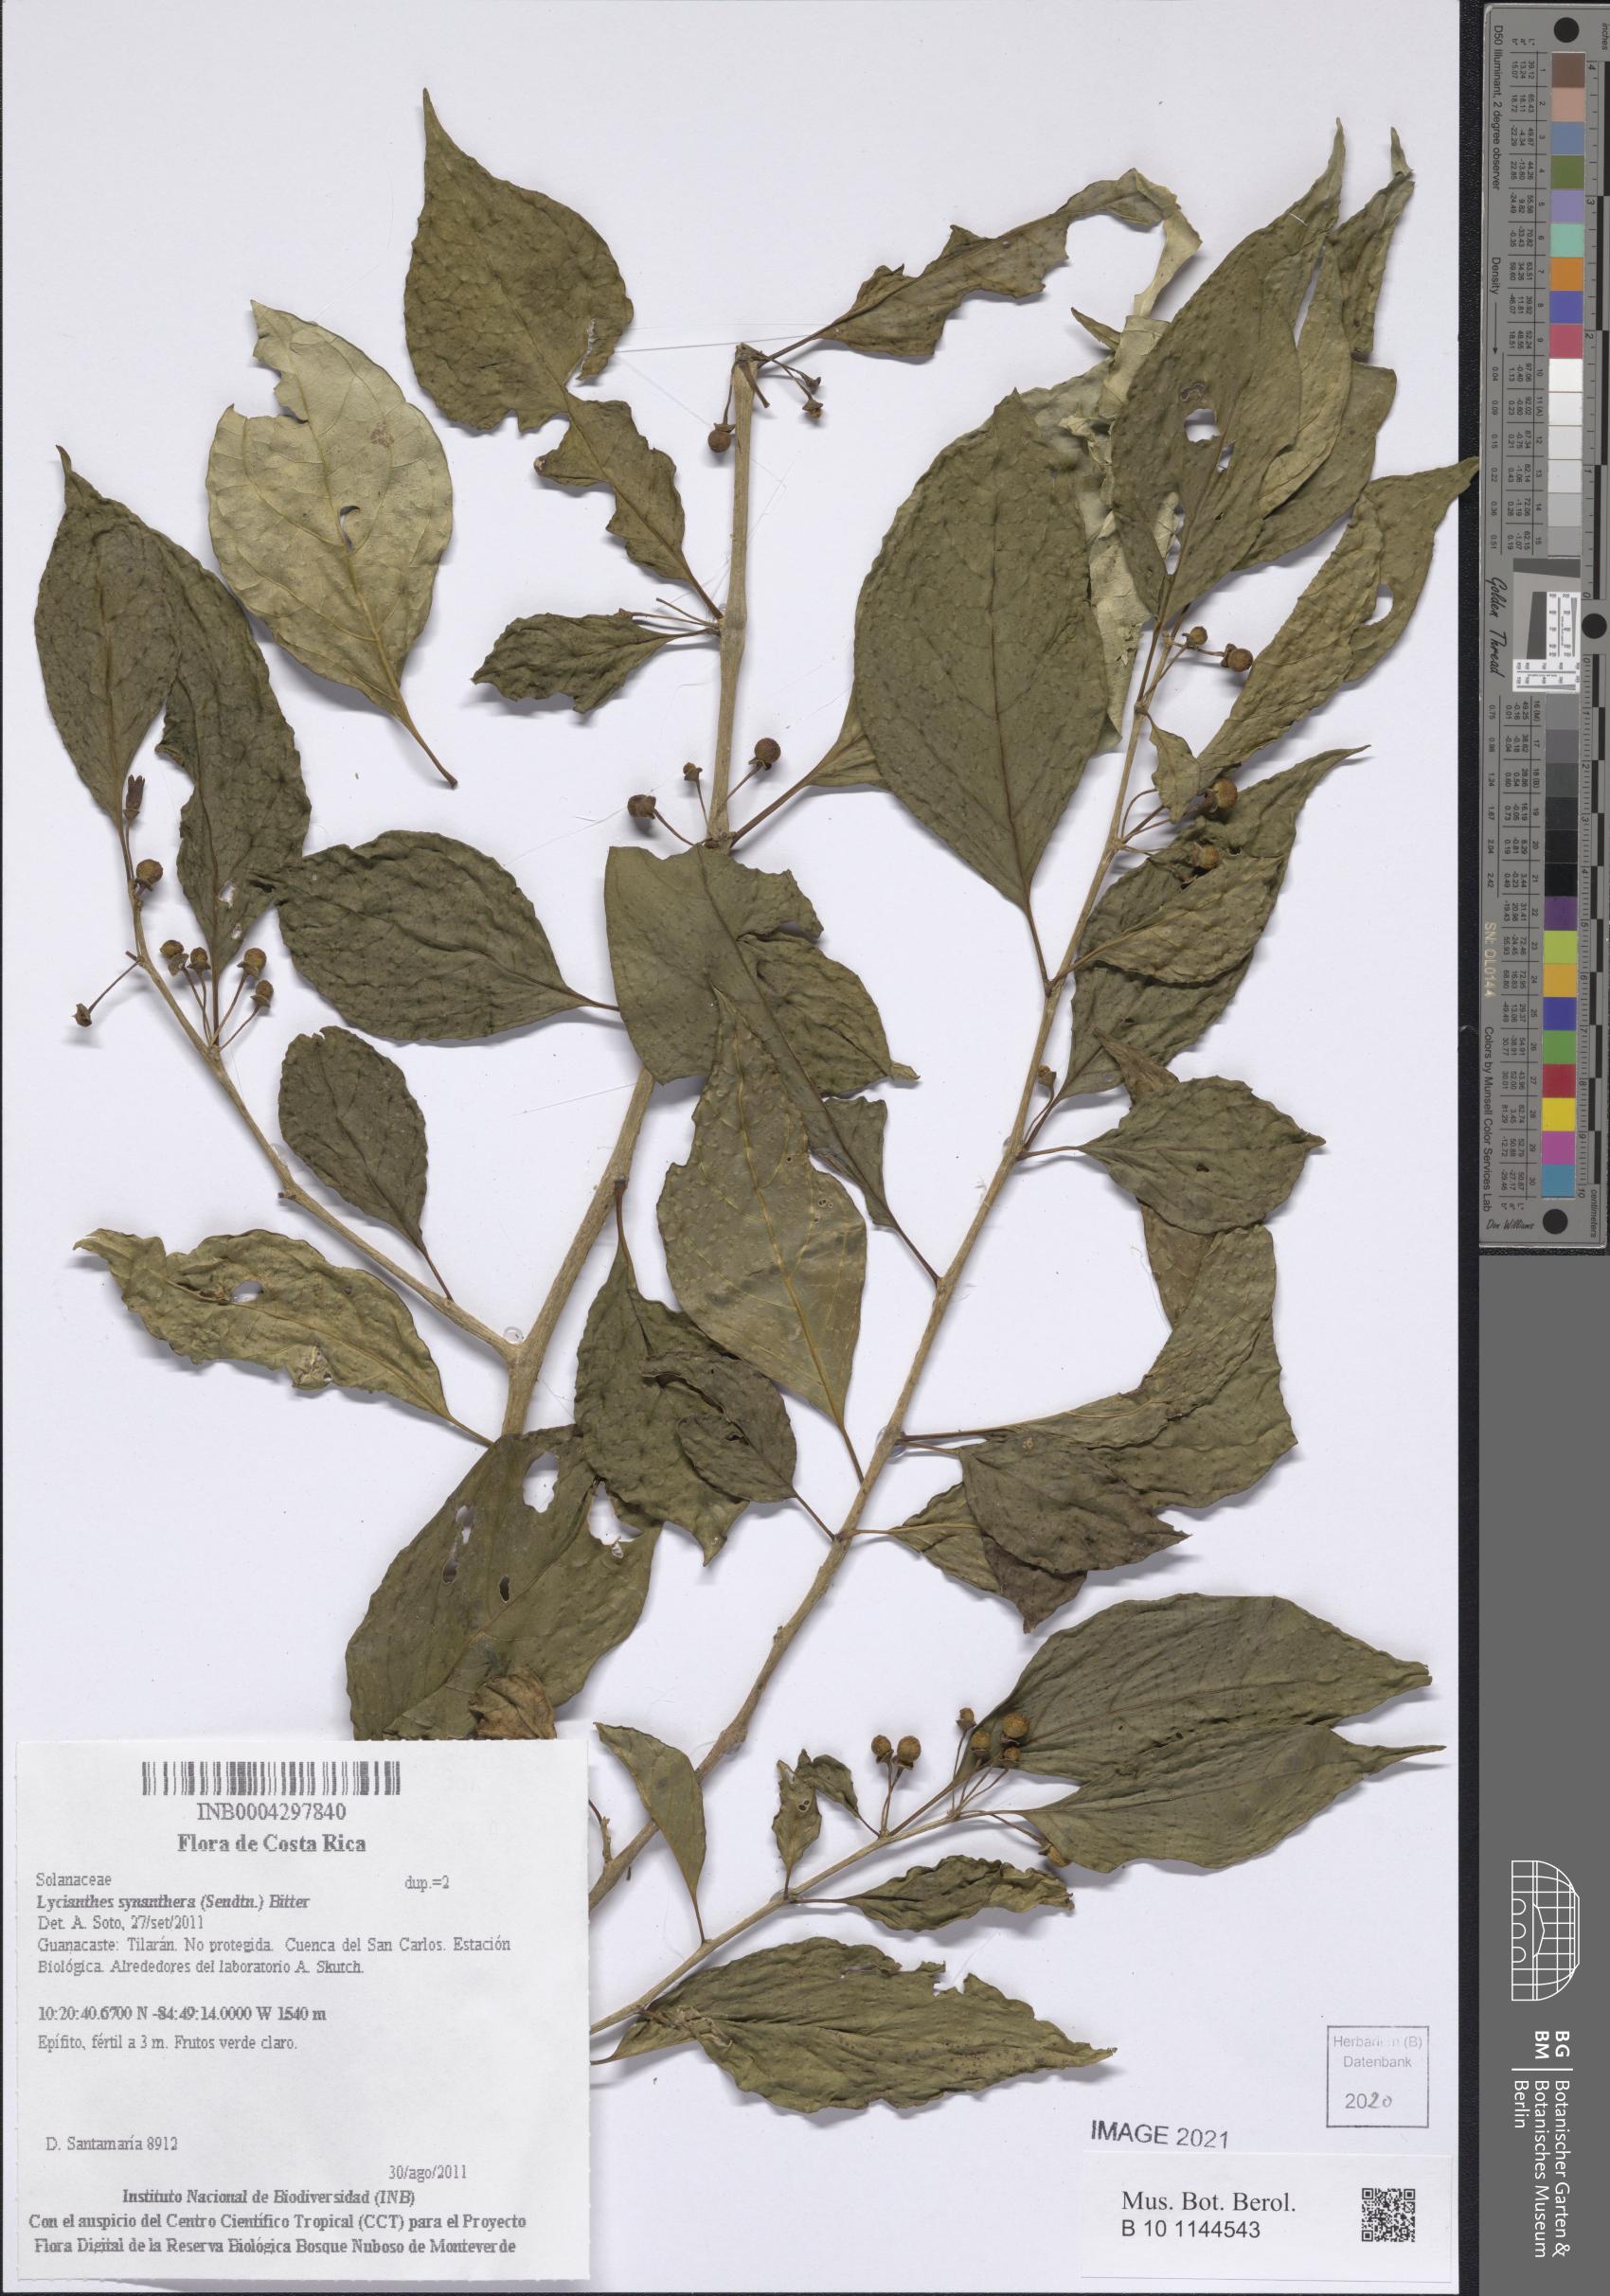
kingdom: Plantae
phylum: Tracheophyta
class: Magnoliopsida
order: Solanales
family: Solanaceae
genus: Lycianthes
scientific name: Lycianthes synanthera
